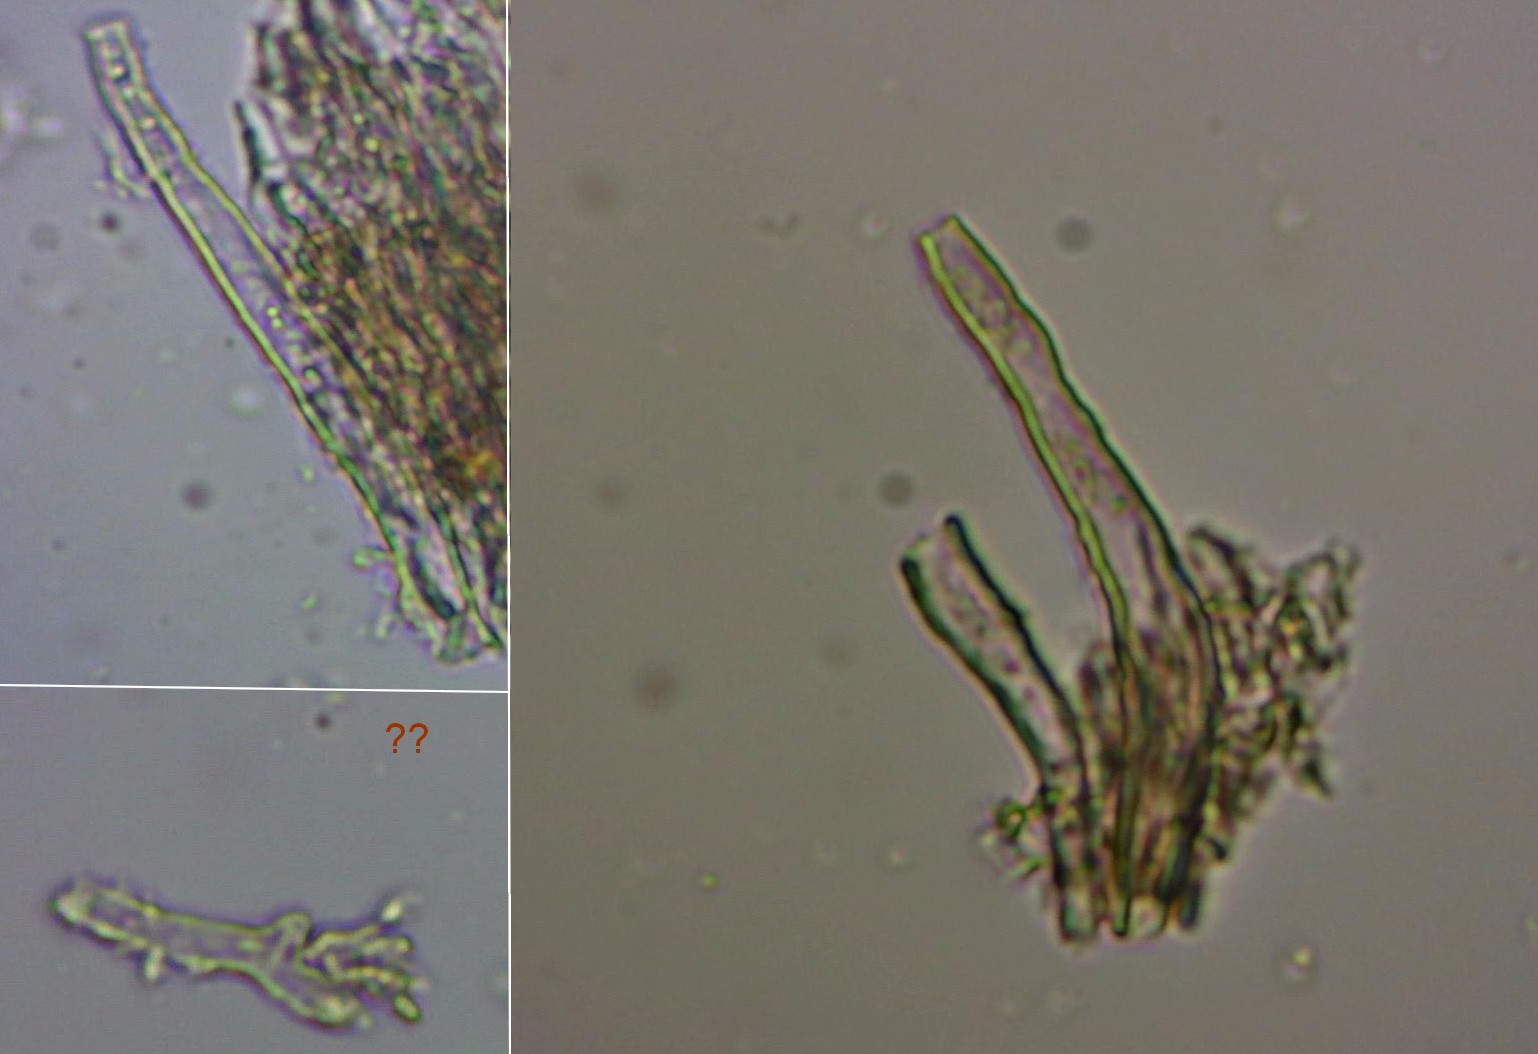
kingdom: Fungi
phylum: Basidiomycota
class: Agaricomycetes
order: Russulales
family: Stereaceae
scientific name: Stereaceae
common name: lædersvampfamilien
